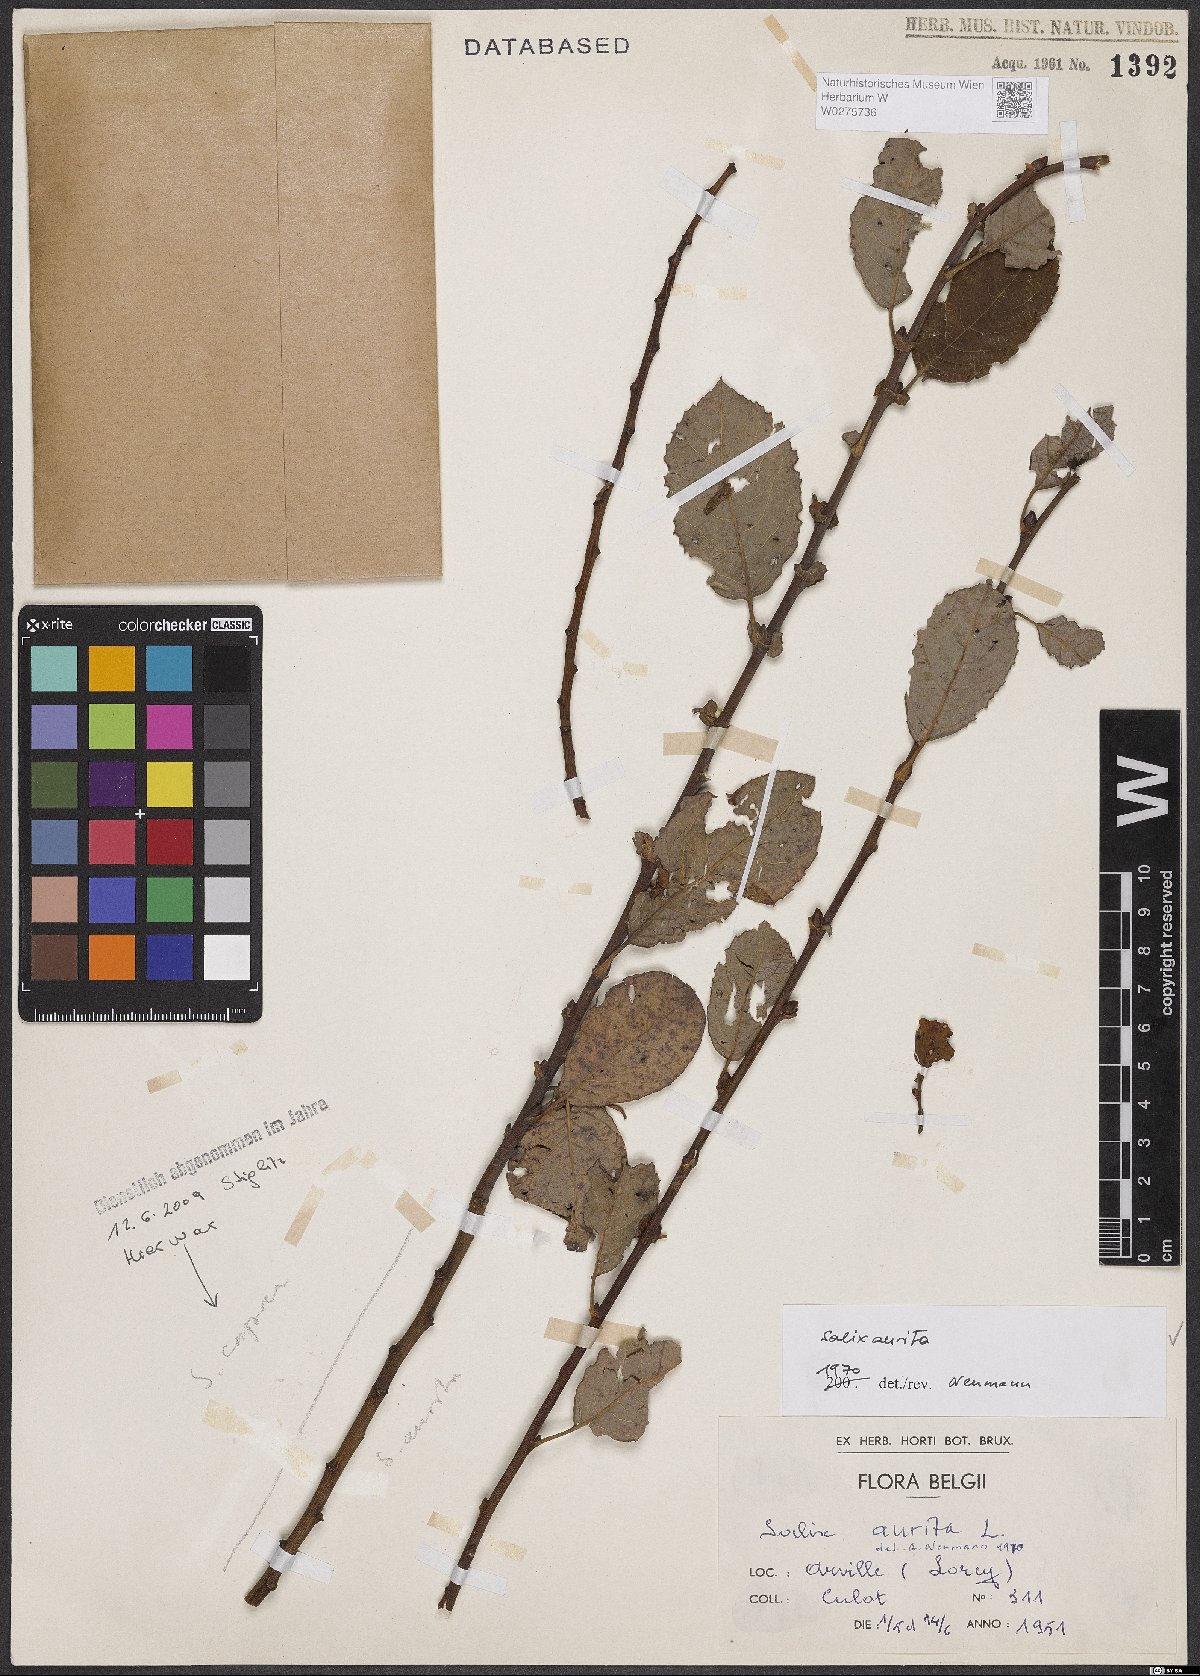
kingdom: Plantae
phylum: Tracheophyta
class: Magnoliopsida
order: Malpighiales
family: Salicaceae
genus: Salix
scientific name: Salix aurita
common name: Eared willow
